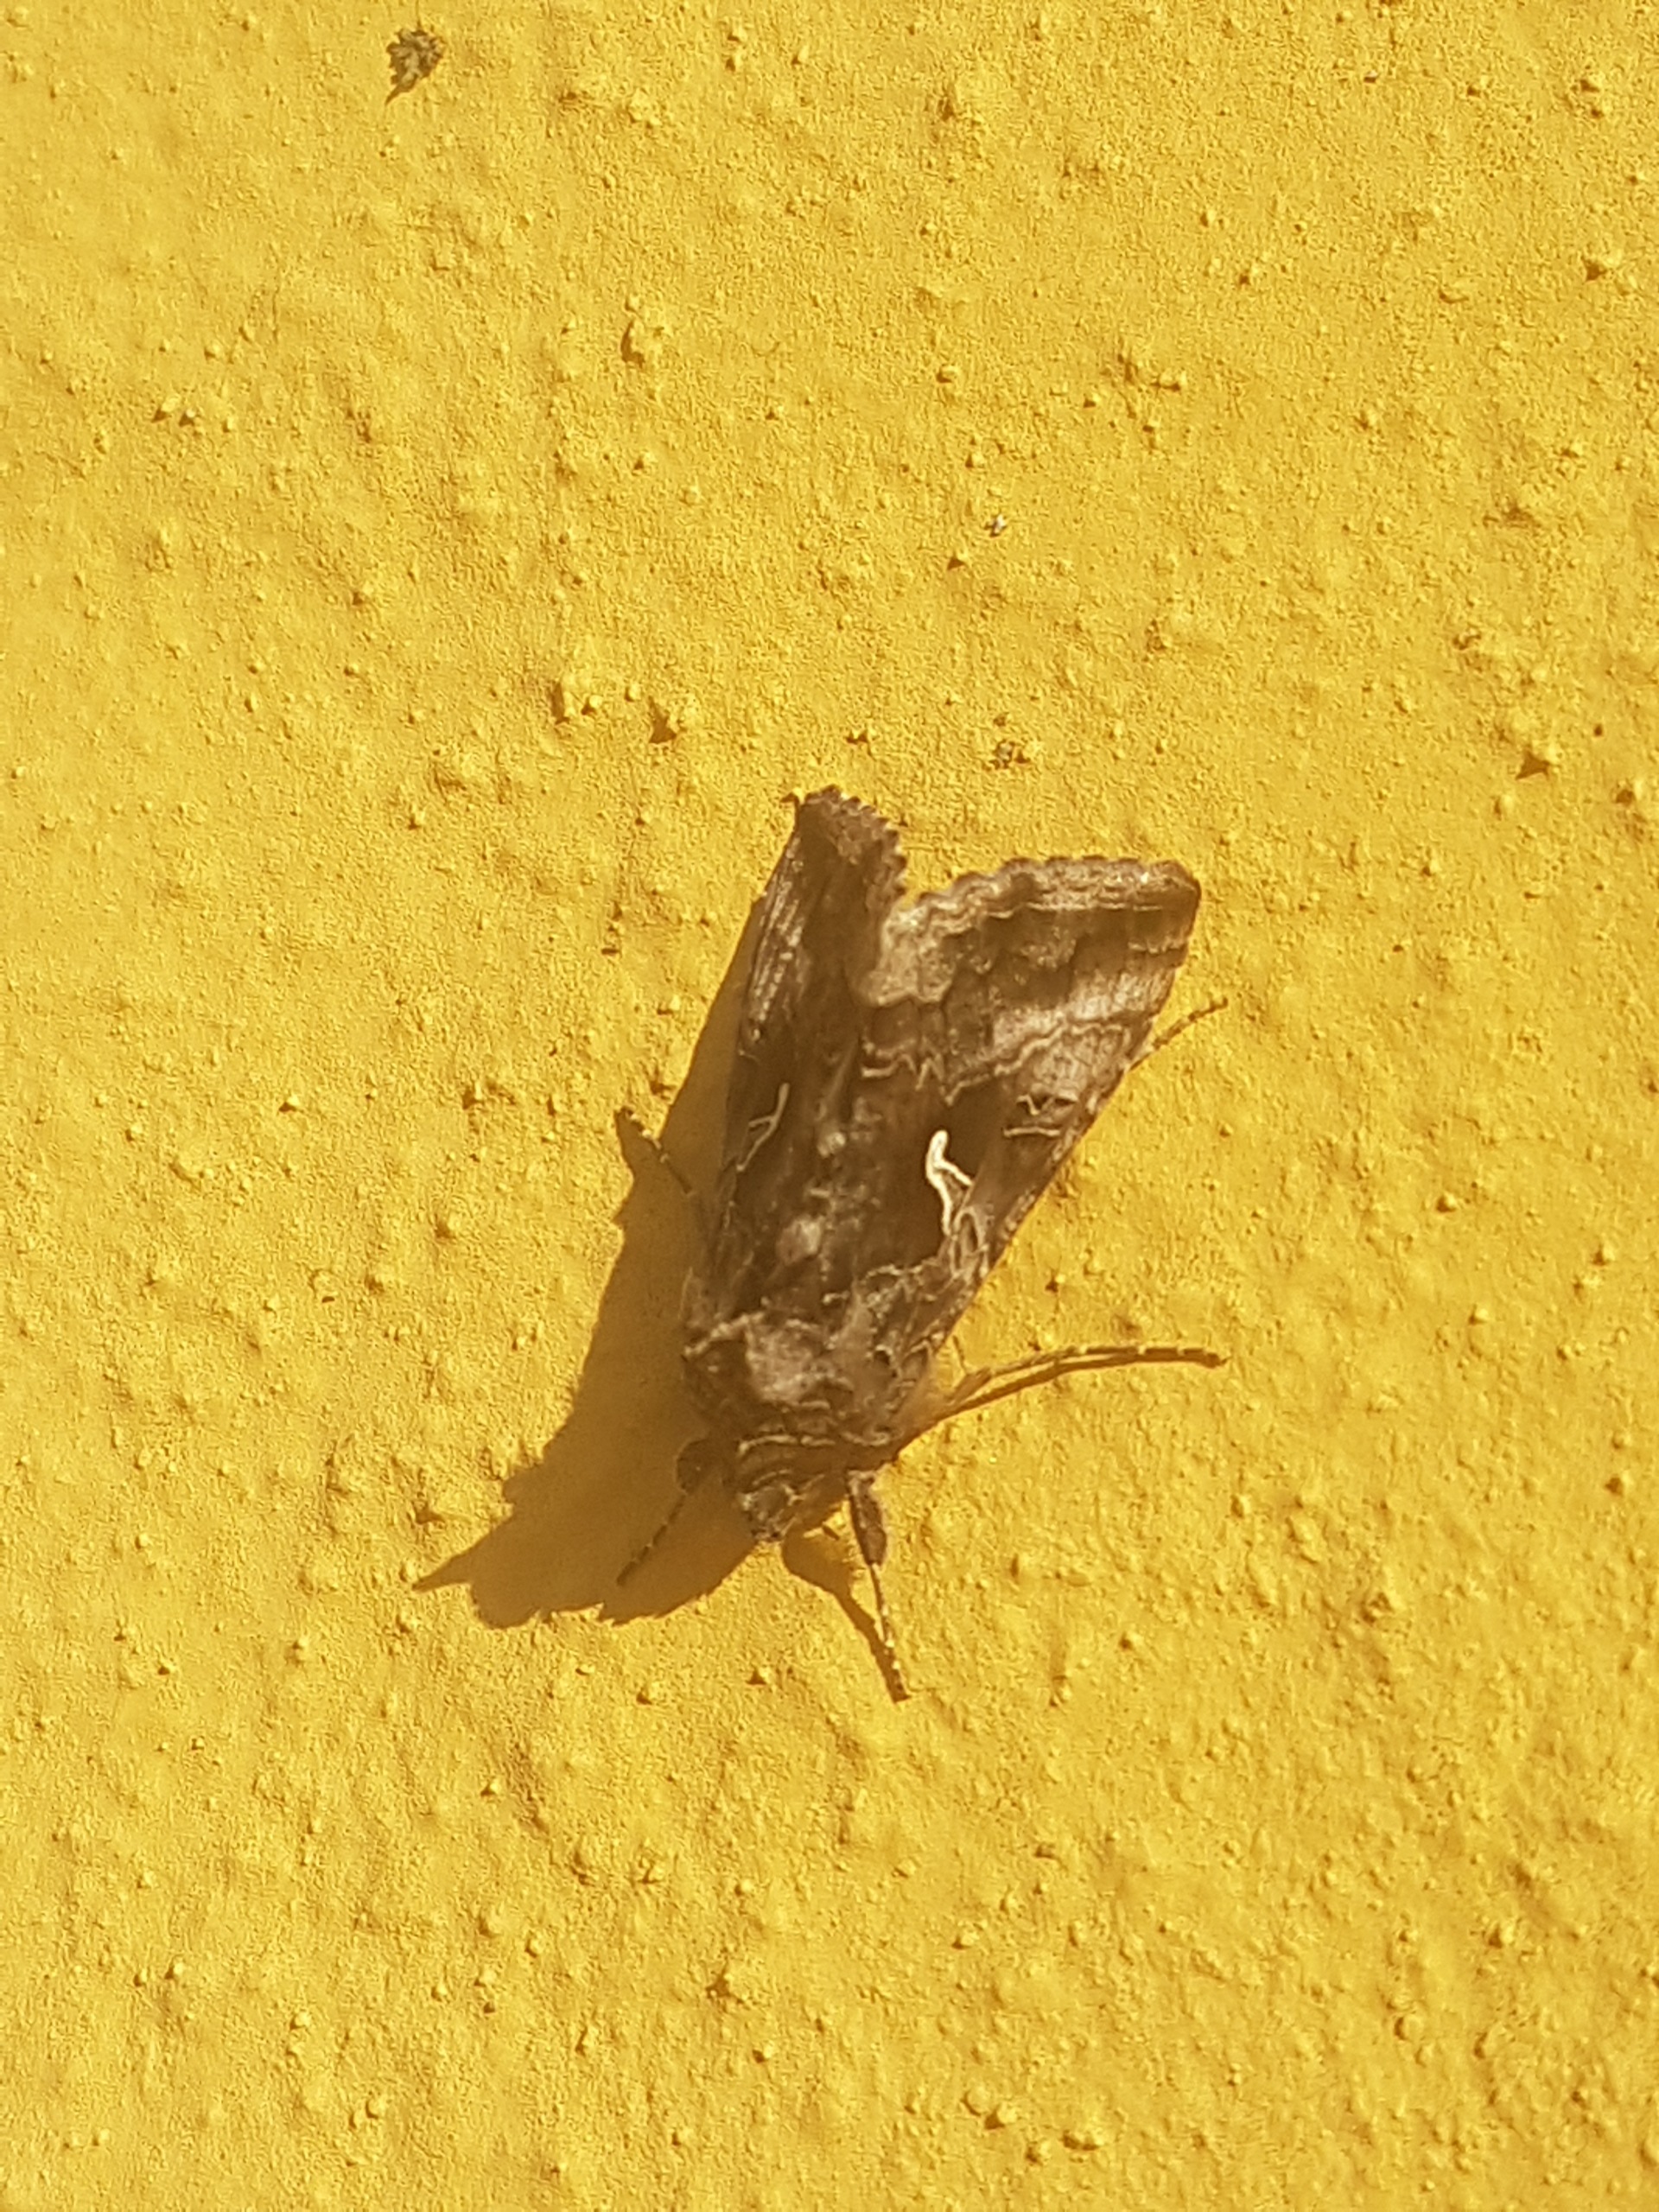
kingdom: Animalia
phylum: Arthropoda
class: Insecta
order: Lepidoptera
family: Noctuidae
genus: Autographa
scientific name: Autographa gamma
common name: Gammaugle
